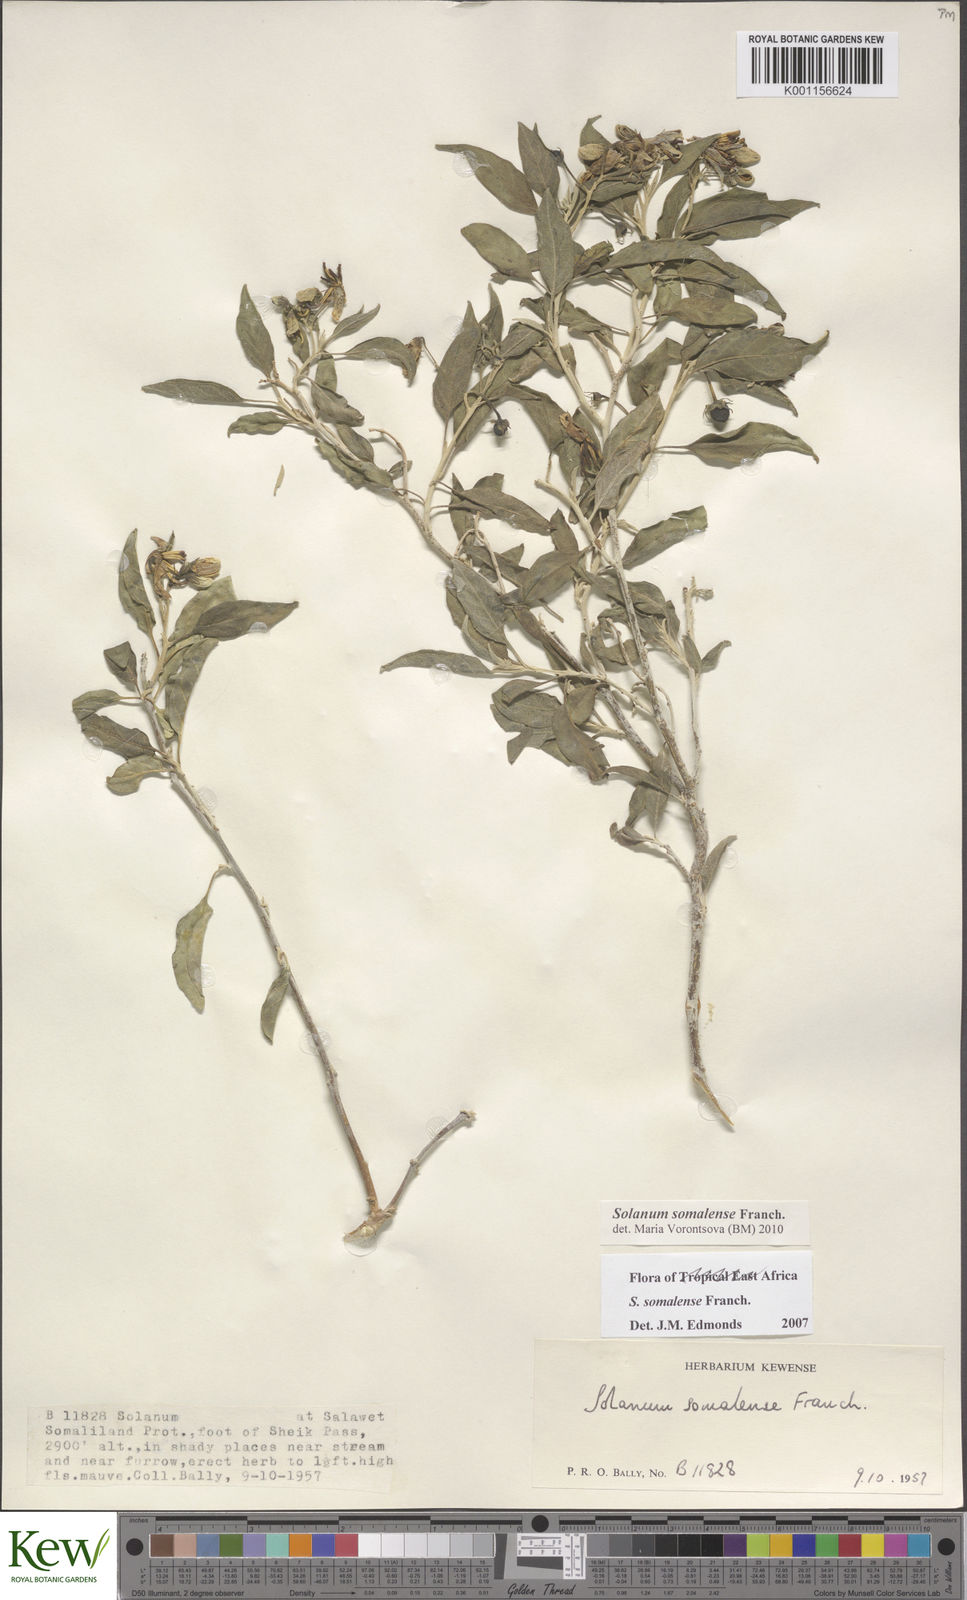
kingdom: Plantae
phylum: Tracheophyta
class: Magnoliopsida
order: Solanales
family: Solanaceae
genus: Solanum
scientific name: Solanum somalense
